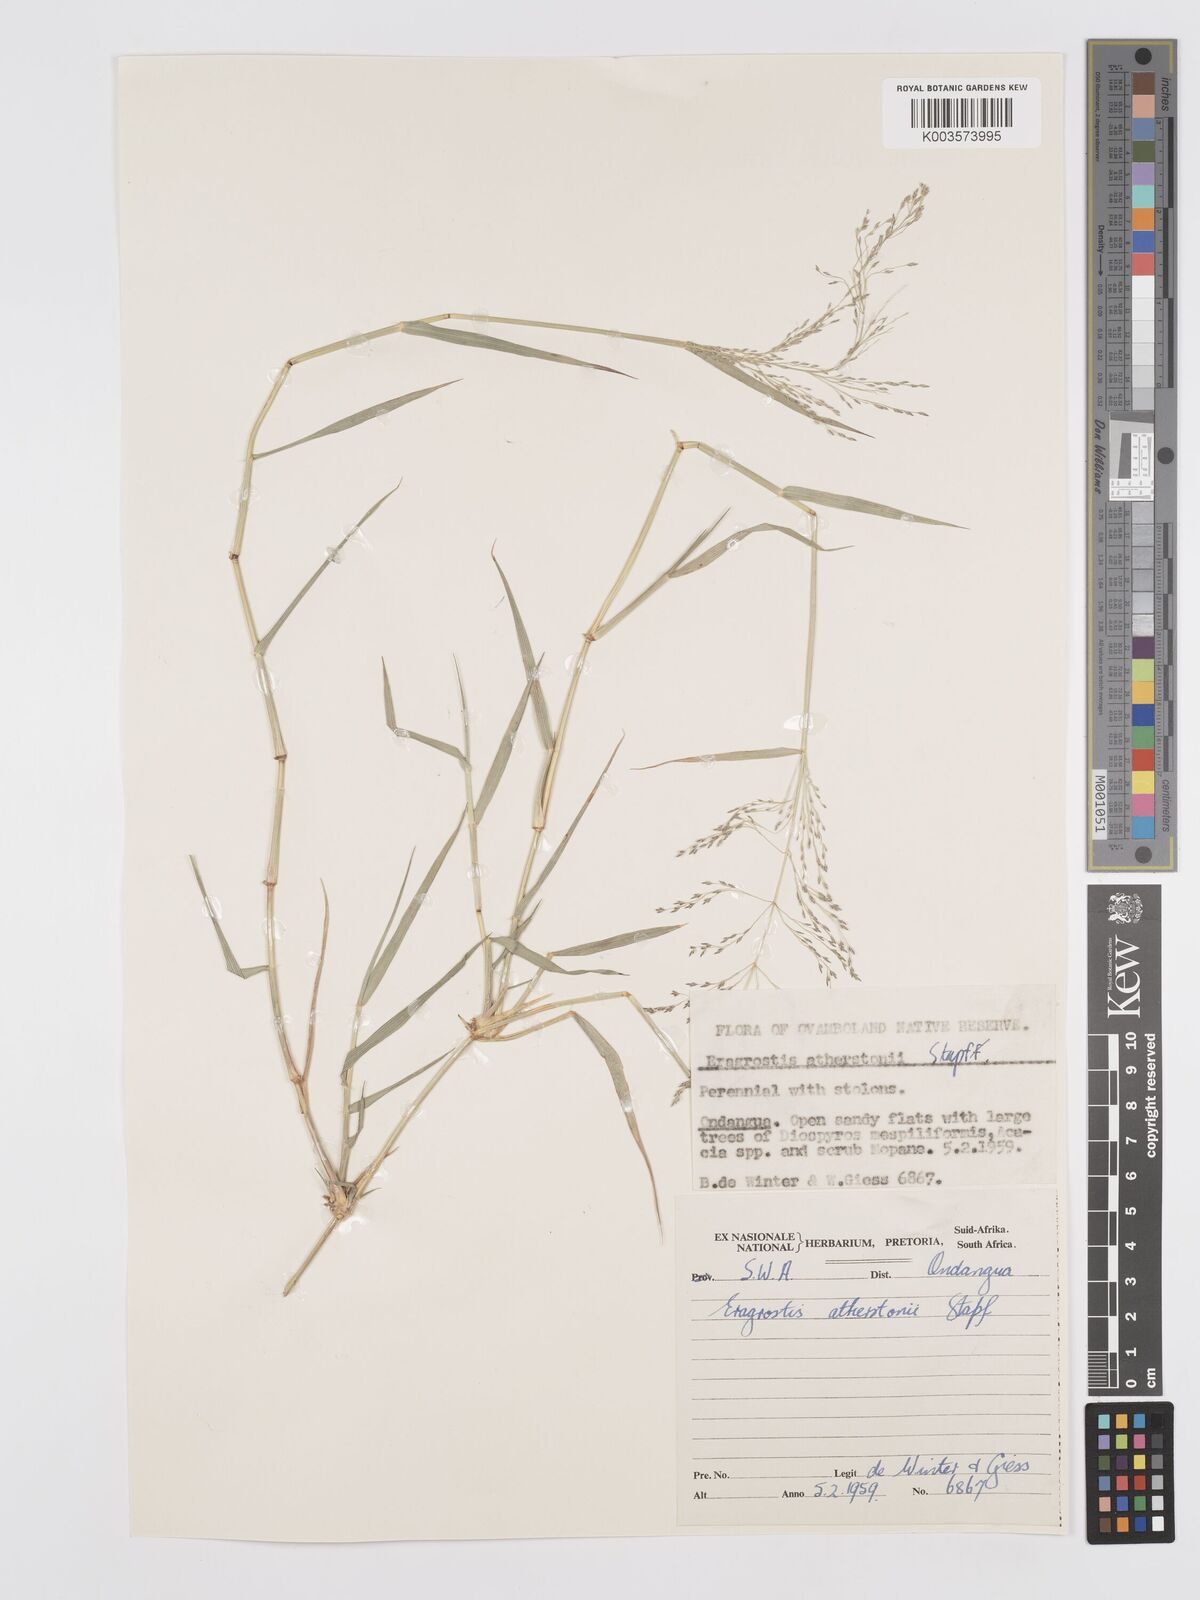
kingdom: Plantae
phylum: Tracheophyta
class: Liliopsida
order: Poales
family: Poaceae
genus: Eragrostis
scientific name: Eragrostis cylindriflora
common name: Cylinderflower lovegrass
